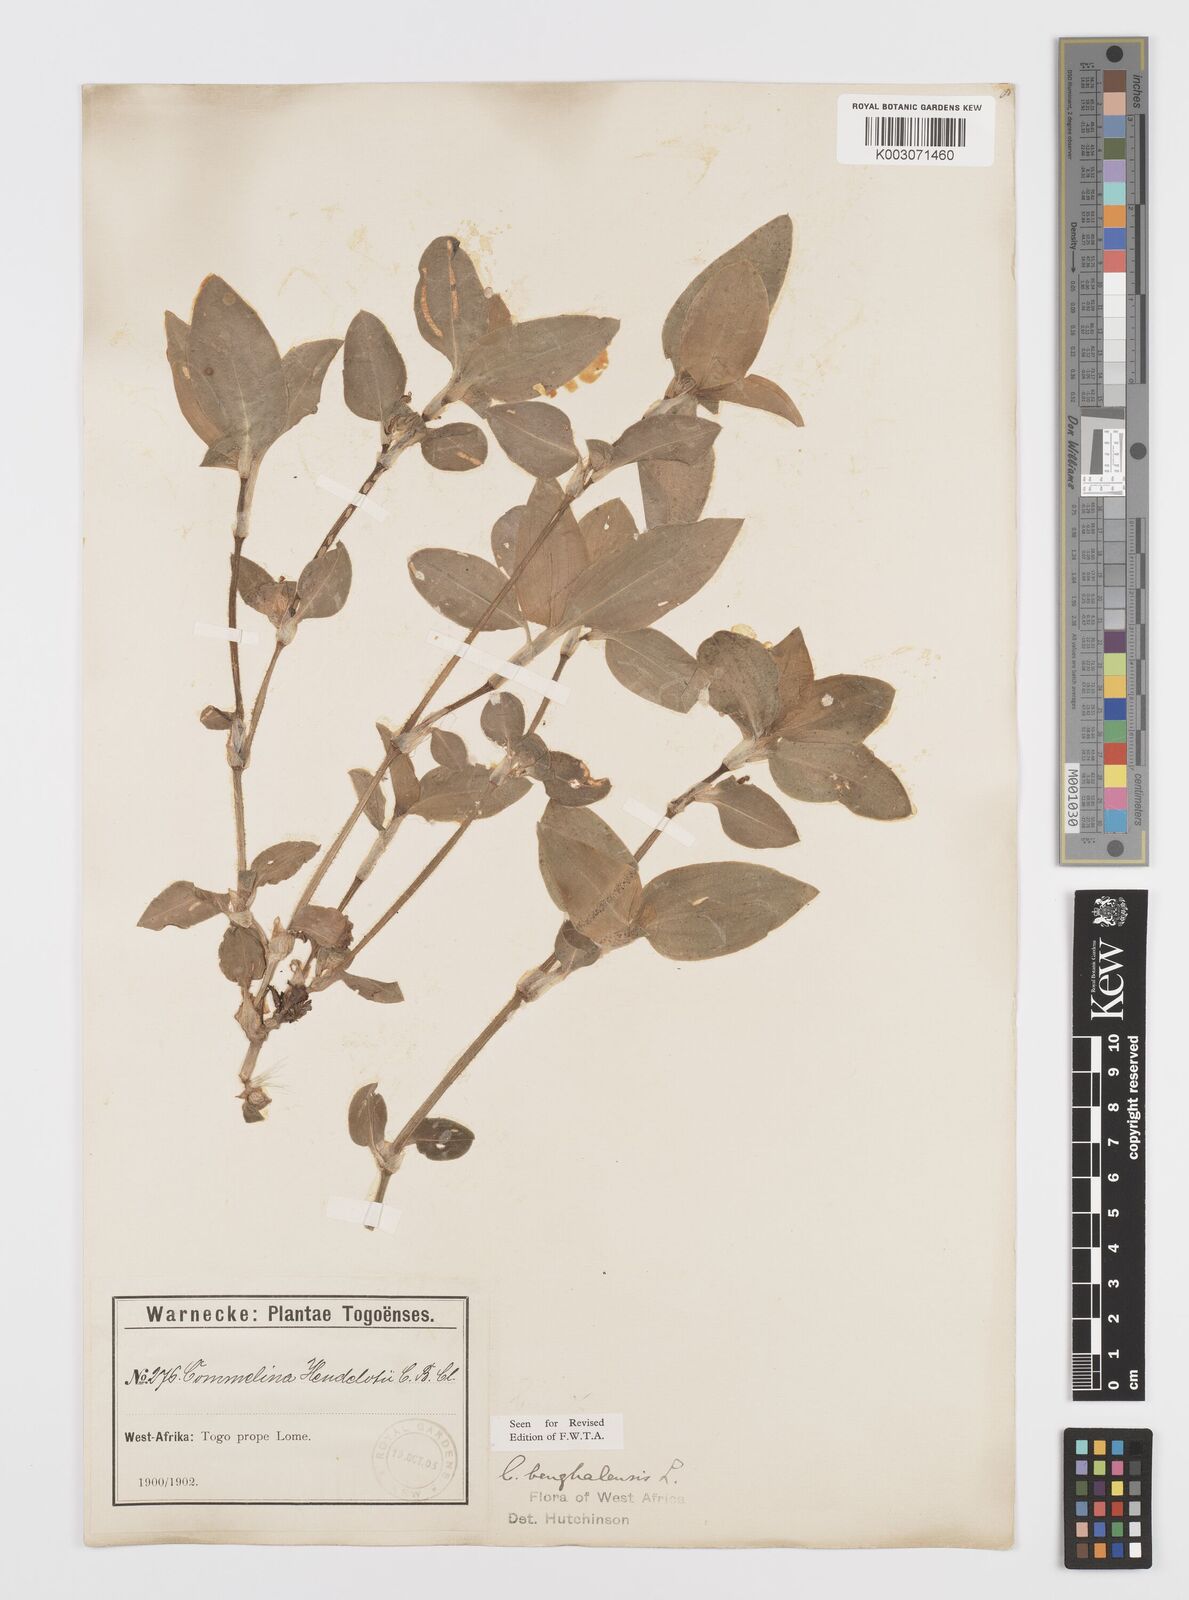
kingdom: Plantae
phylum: Tracheophyta
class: Liliopsida
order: Commelinales
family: Commelinaceae
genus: Commelina
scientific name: Commelina benghalensis
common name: Jio
